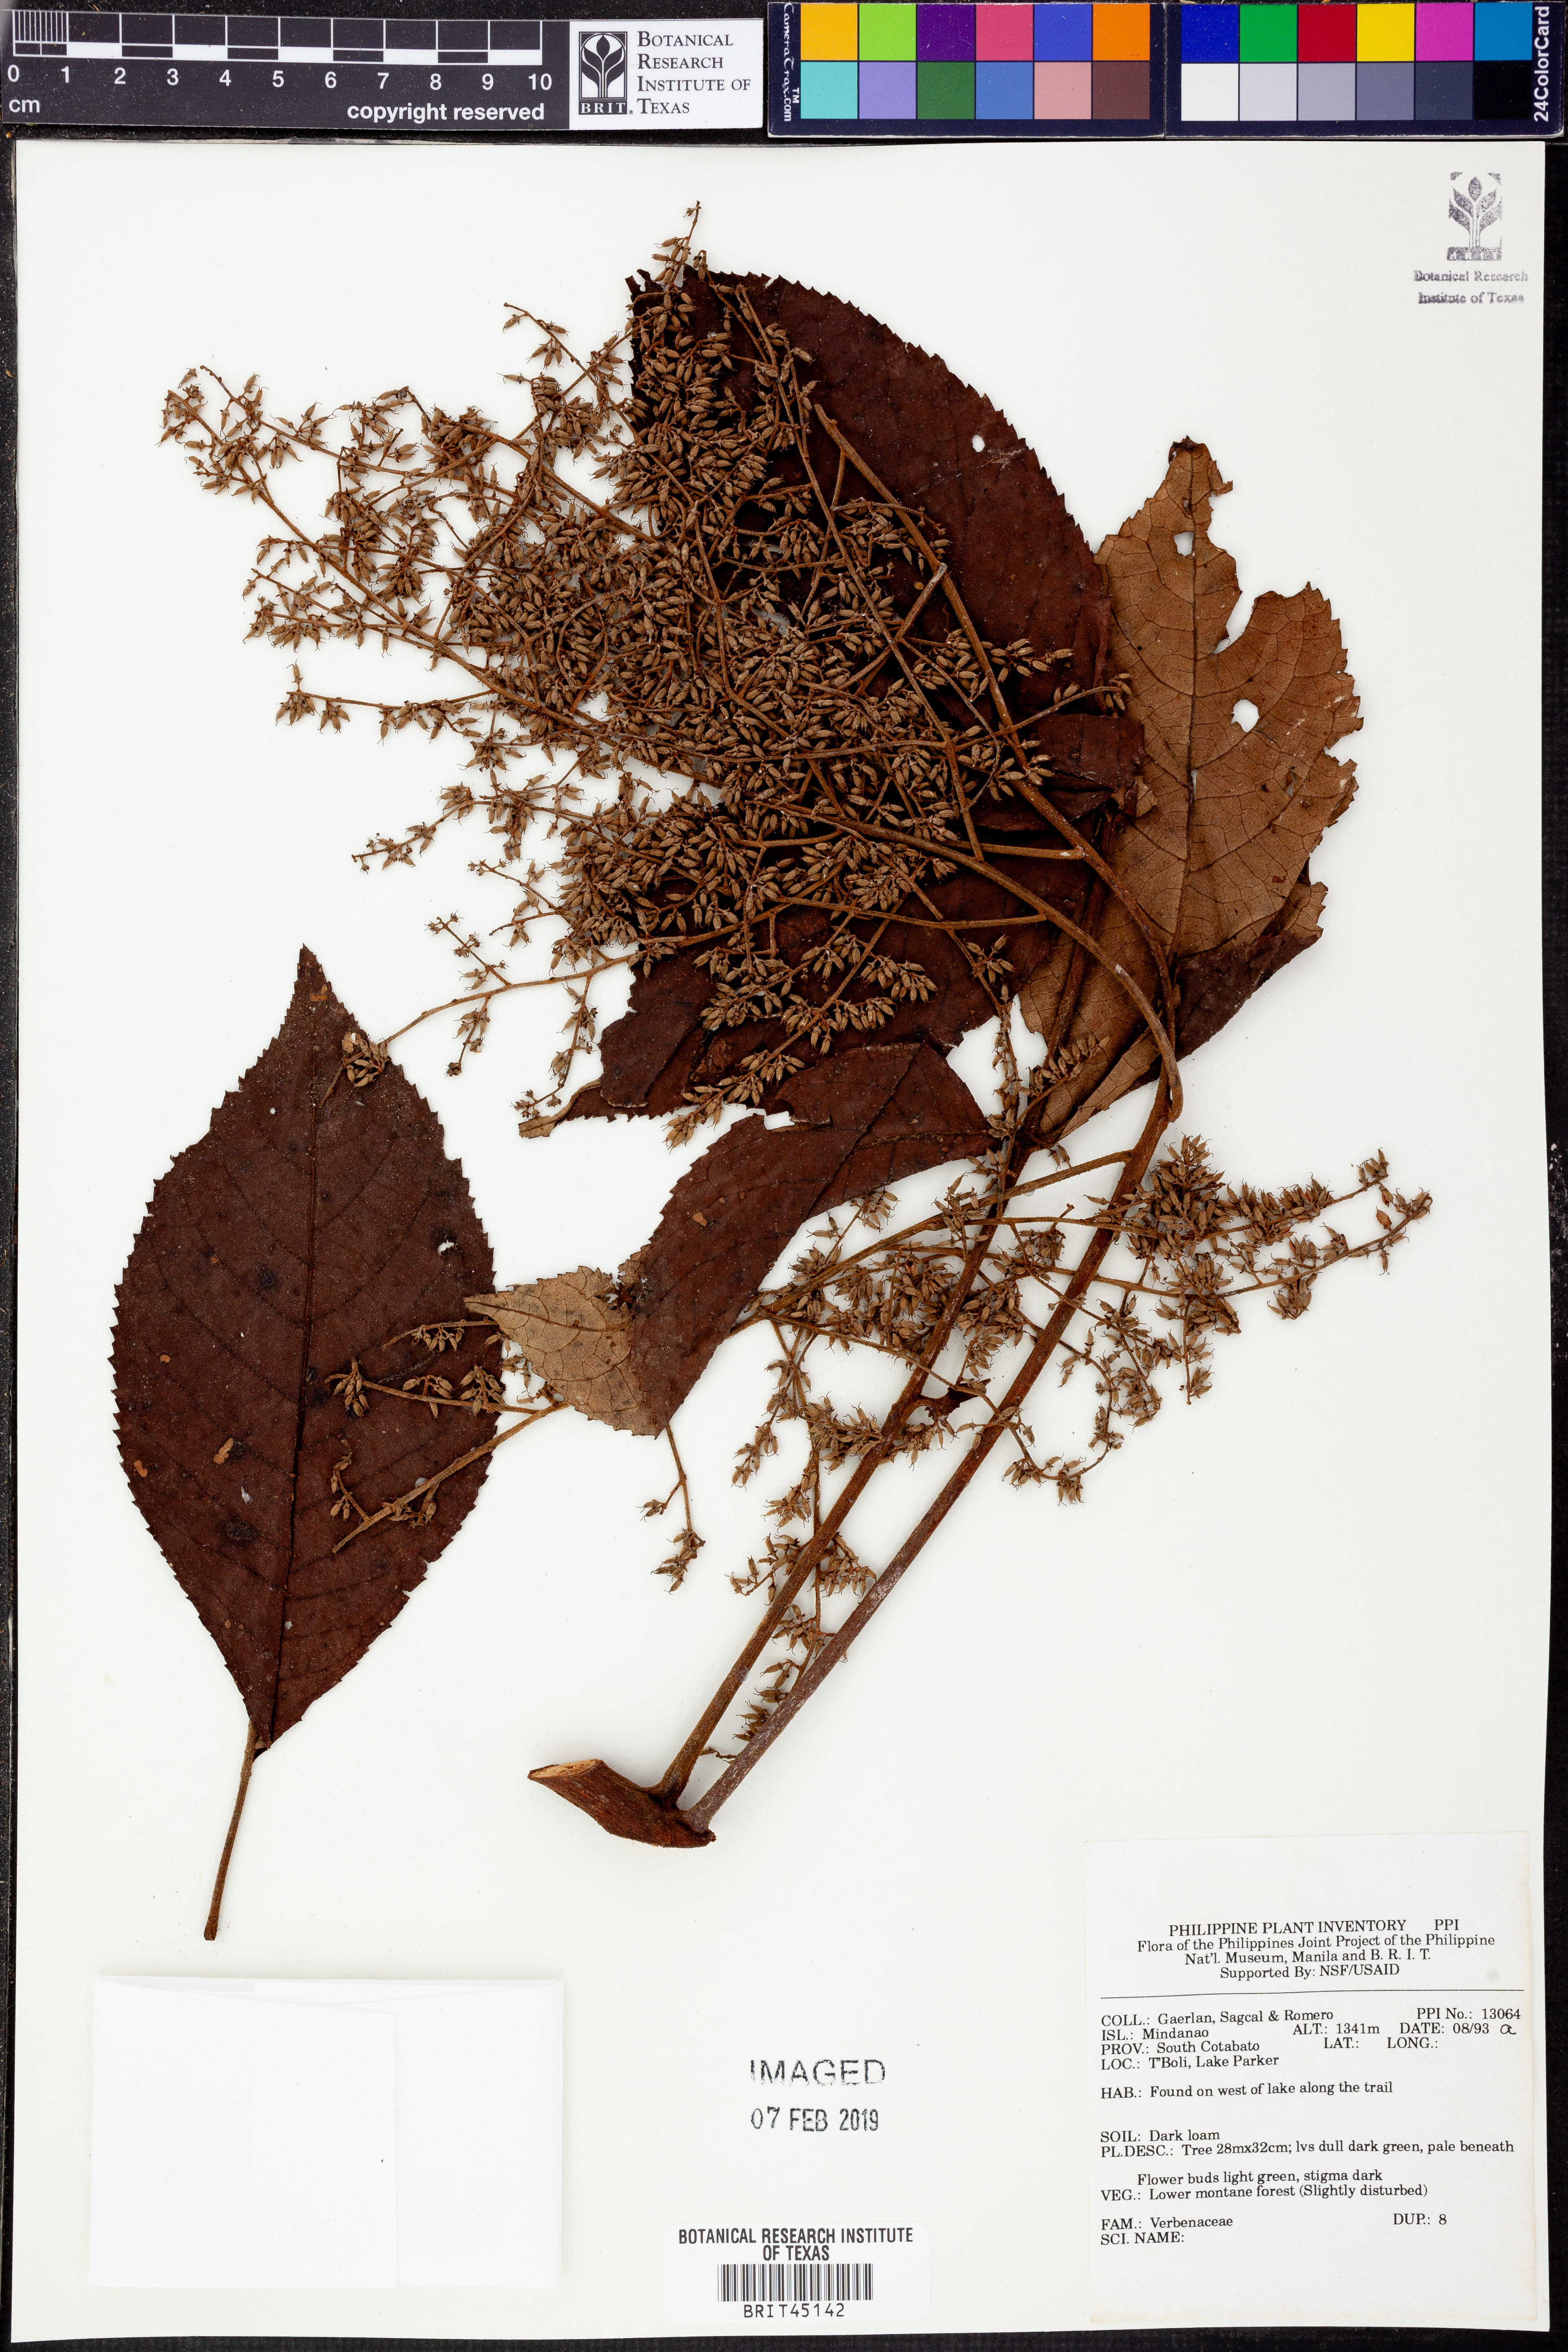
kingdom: Plantae
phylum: Tracheophyta
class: Magnoliopsida
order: Lamiales
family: Verbenaceae
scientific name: Verbenaceae
